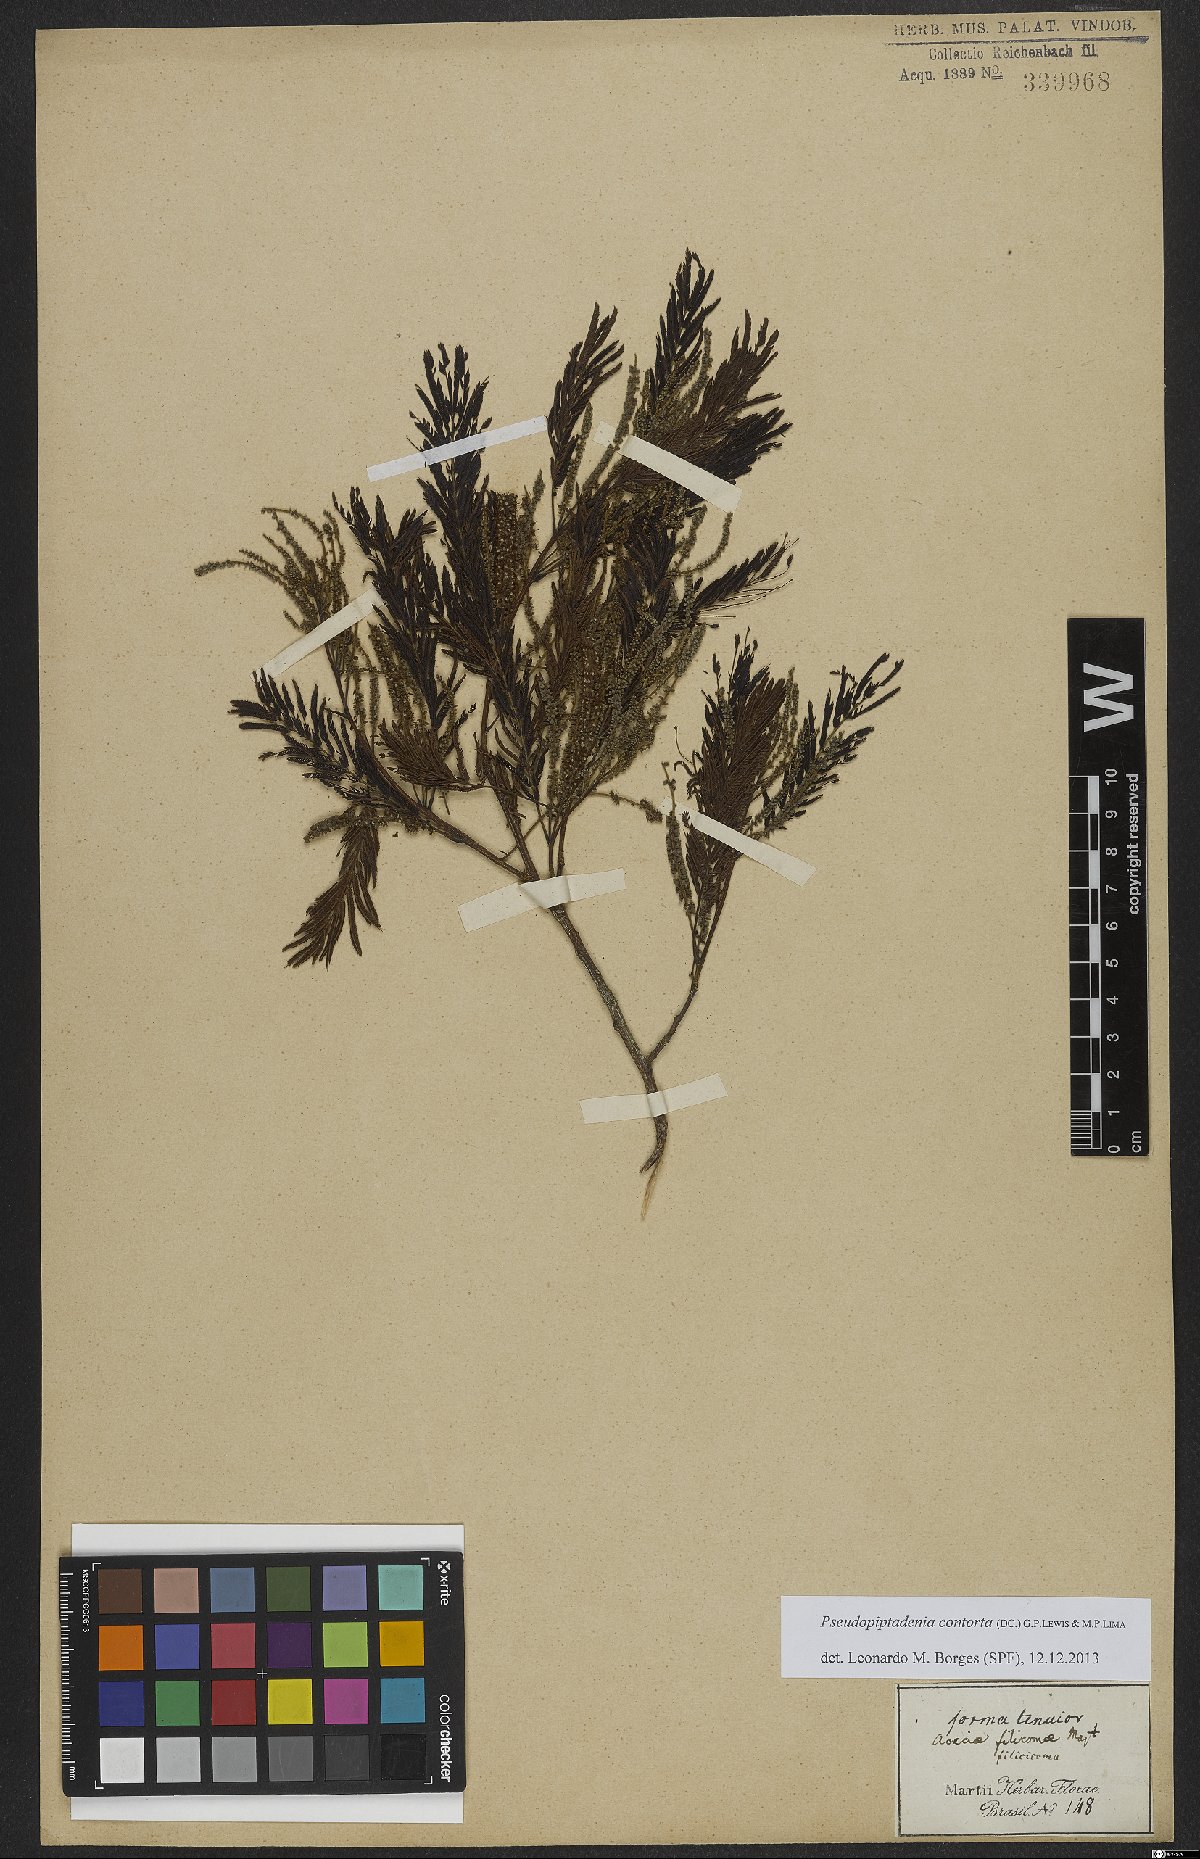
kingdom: Plantae
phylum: Tracheophyta
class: Magnoliopsida
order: Fabales
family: Fabaceae
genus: Pseudopiptadenia
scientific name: Pseudopiptadenia contorta
